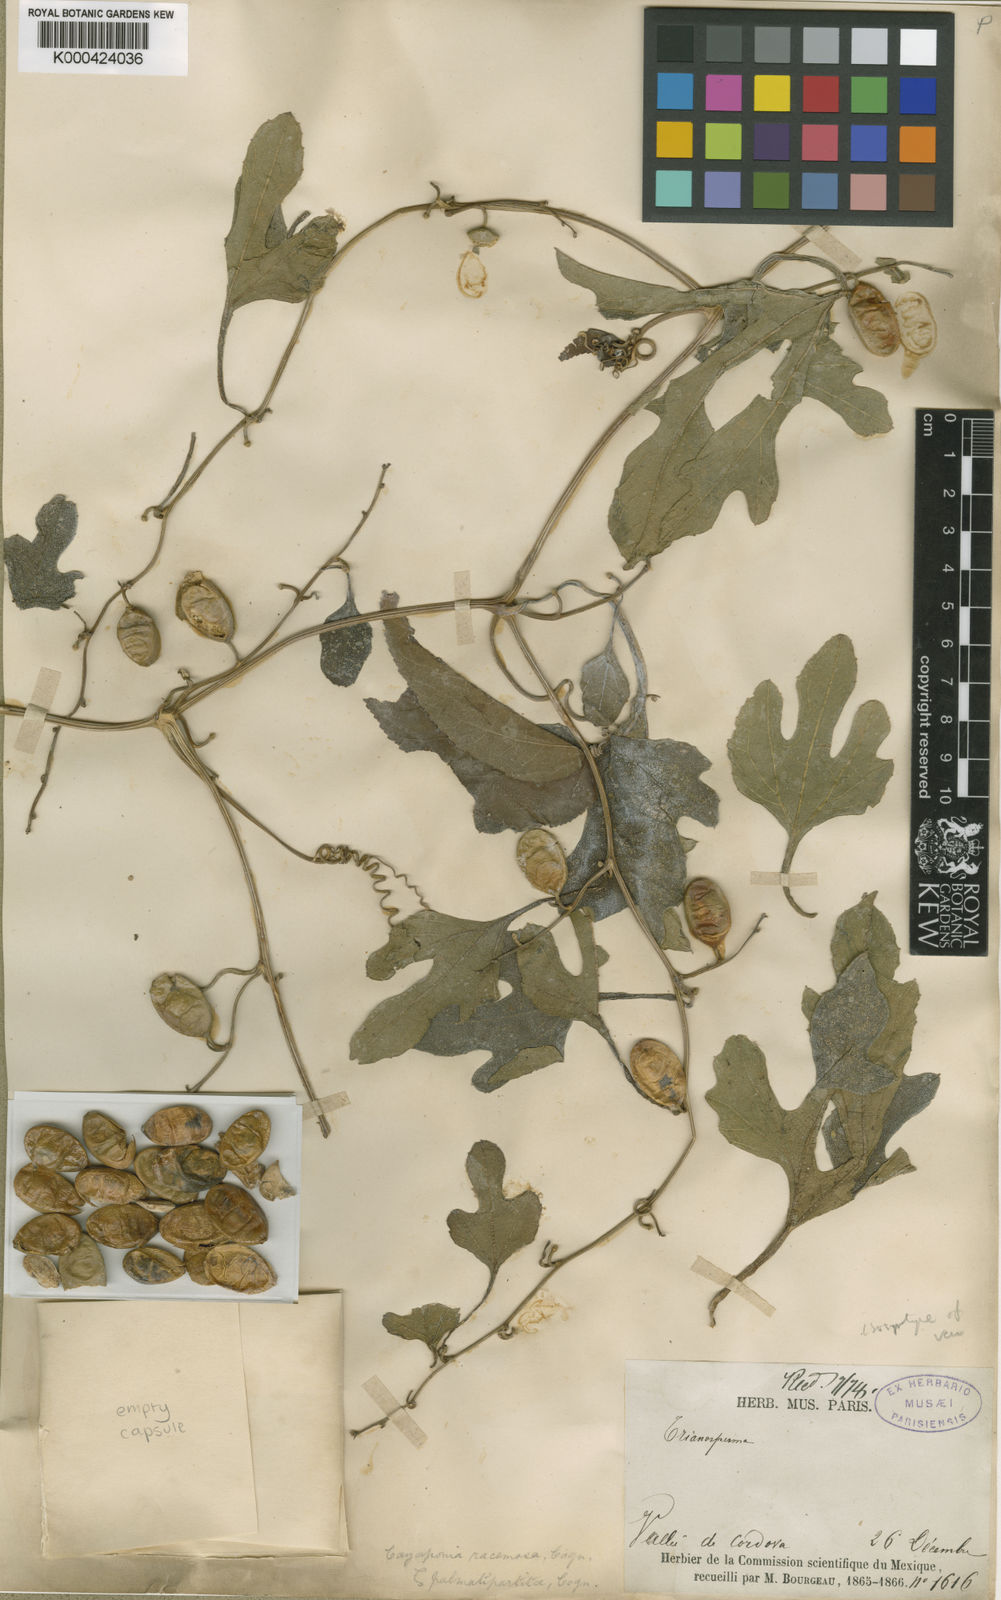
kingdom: Plantae
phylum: Tracheophyta
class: Magnoliopsida
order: Cucurbitales
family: Cucurbitaceae
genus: Cayaponia
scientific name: Cayaponia racemosa
